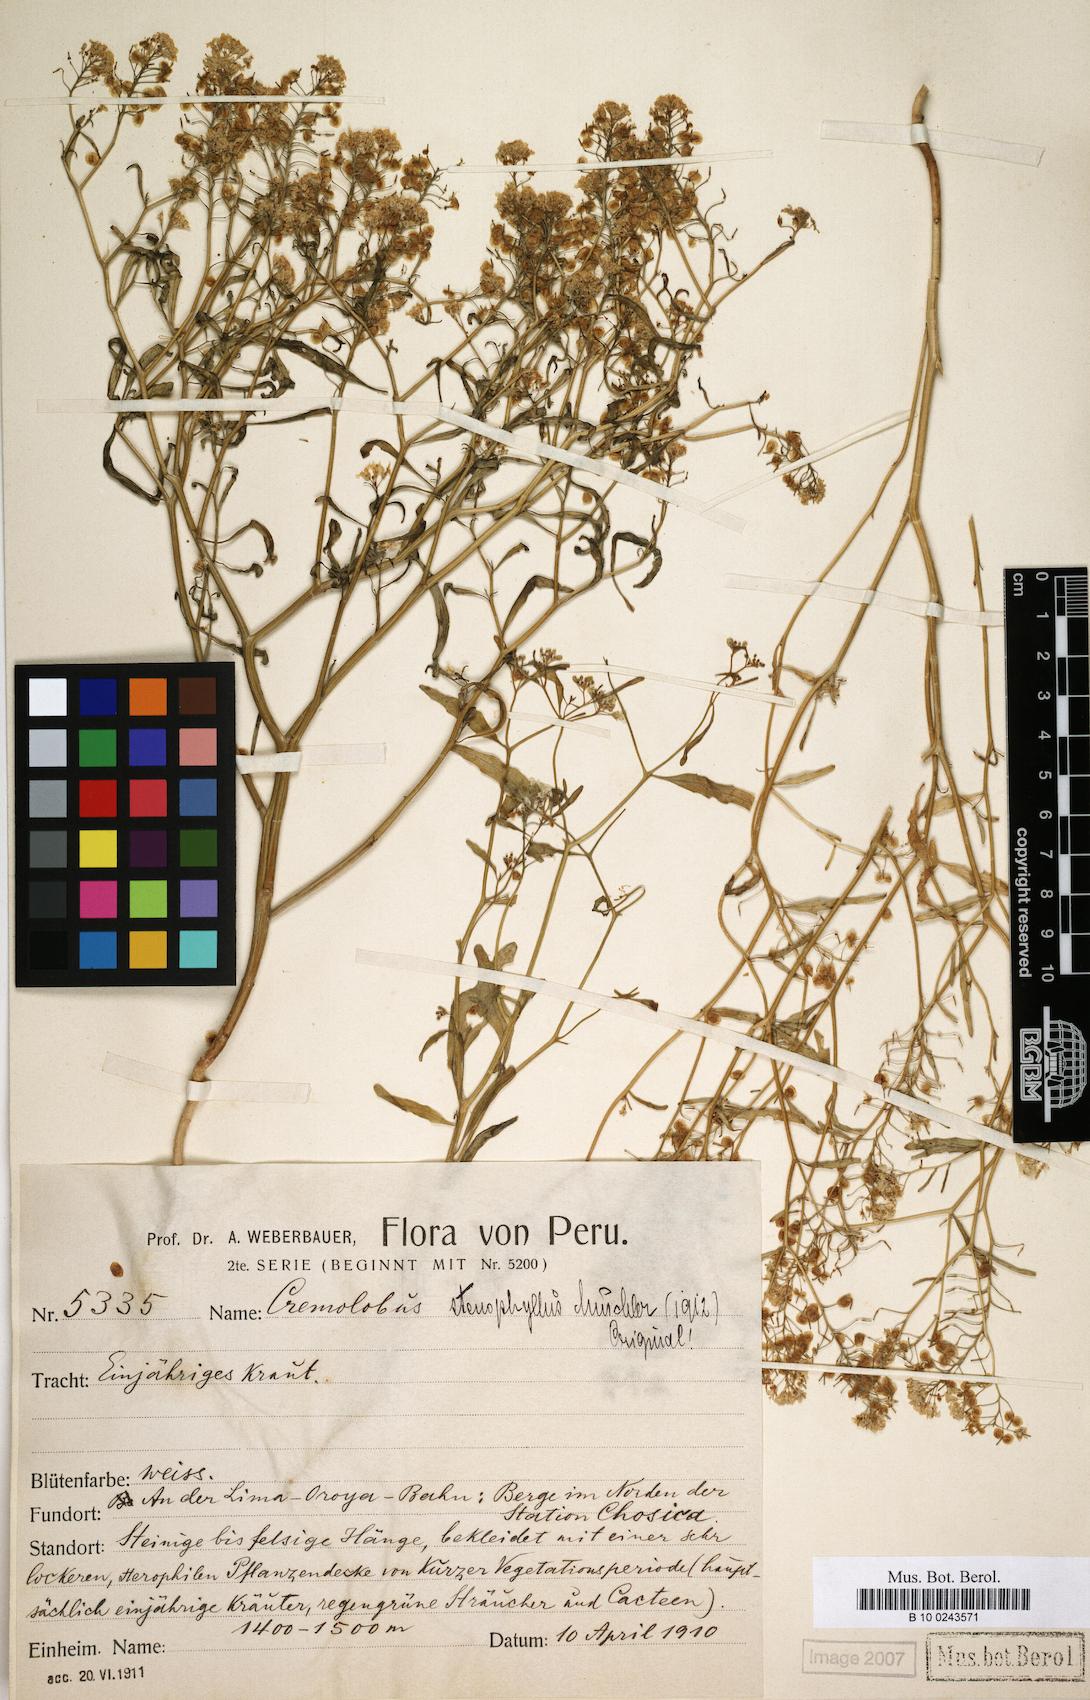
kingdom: Plantae
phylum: Tracheophyta
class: Magnoliopsida
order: Brassicales
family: Brassicaceae
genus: Cremolobus
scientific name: Cremolobus stenophyllus
